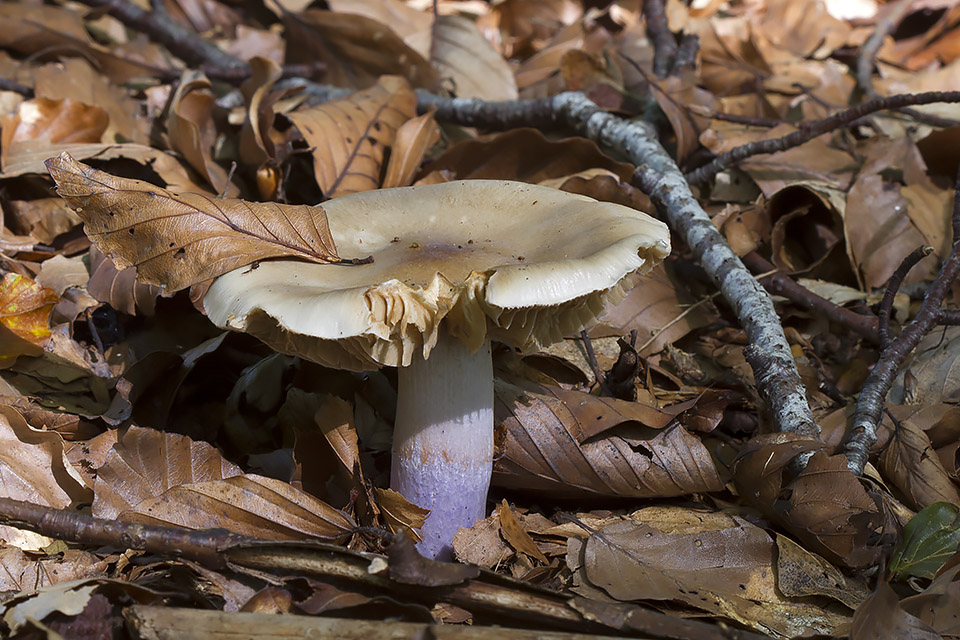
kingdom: Fungi
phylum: Basidiomycota
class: Agaricomycetes
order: Agaricales
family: Cortinariaceae
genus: Cortinarius
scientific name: Cortinarius elatior
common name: høj slørhat
